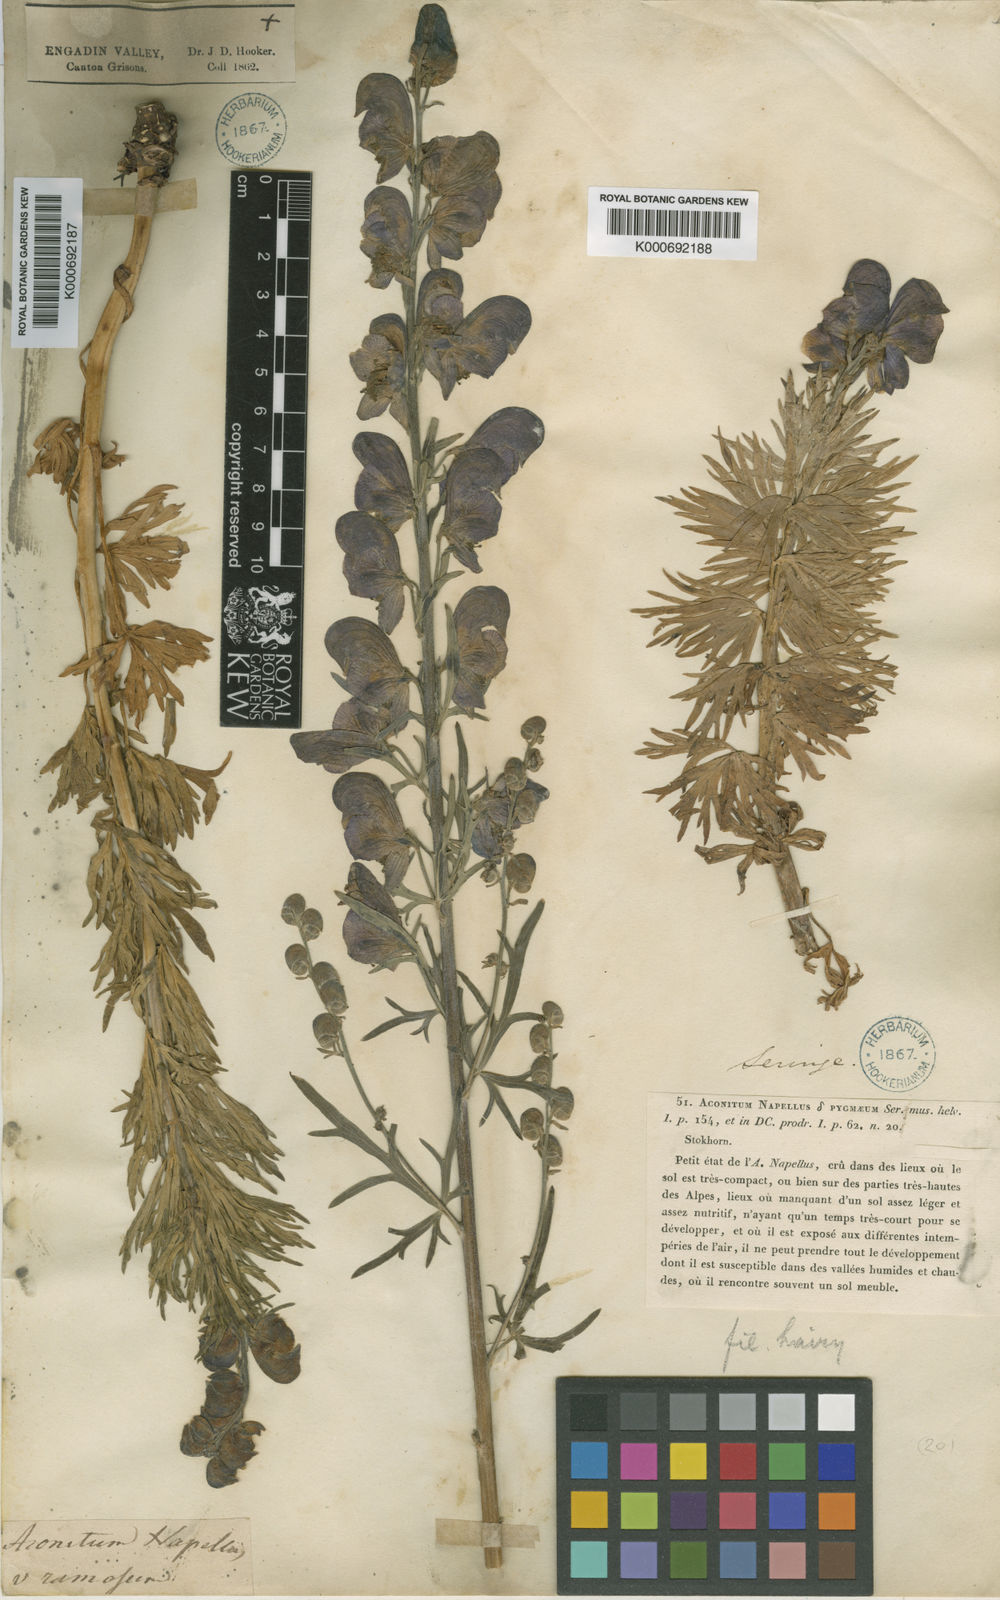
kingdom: Plantae
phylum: Tracheophyta
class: Magnoliopsida
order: Ranunculales
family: Ranunculaceae
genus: Aconitum
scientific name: Aconitum
